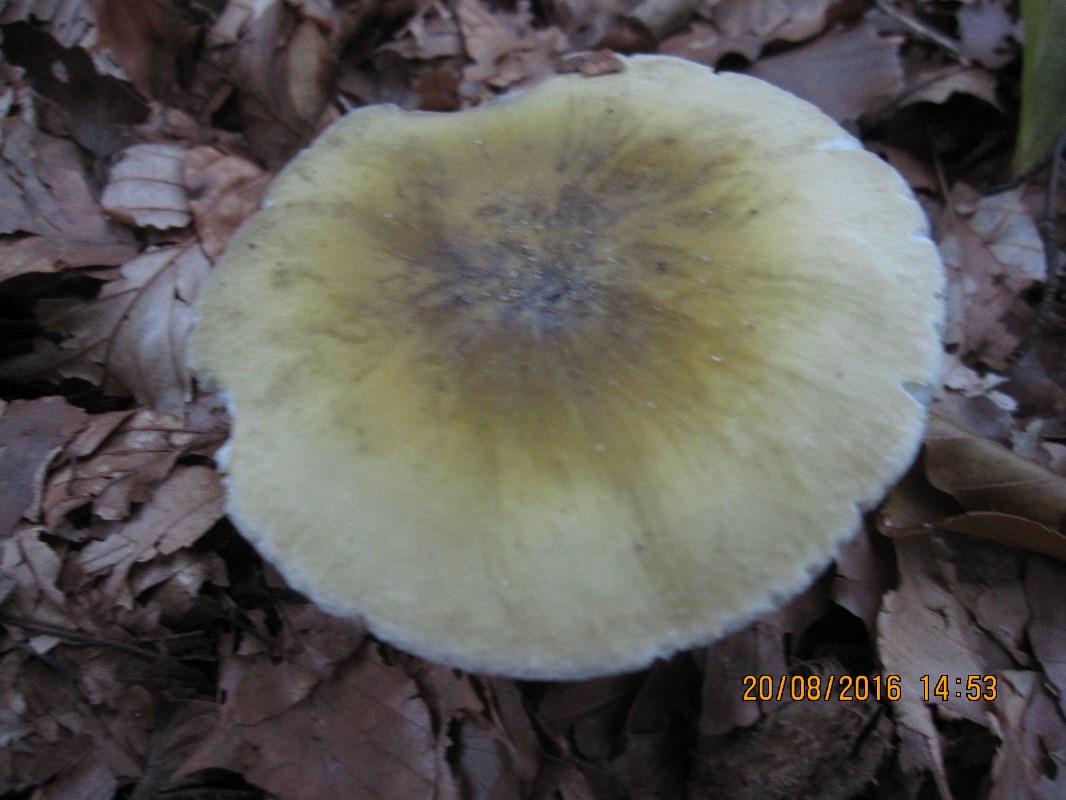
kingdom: Fungi
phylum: Basidiomycota
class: Agaricomycetes
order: Russulales
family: Russulaceae
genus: Russula
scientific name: Russula violeipes
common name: ferskengul skørhat
